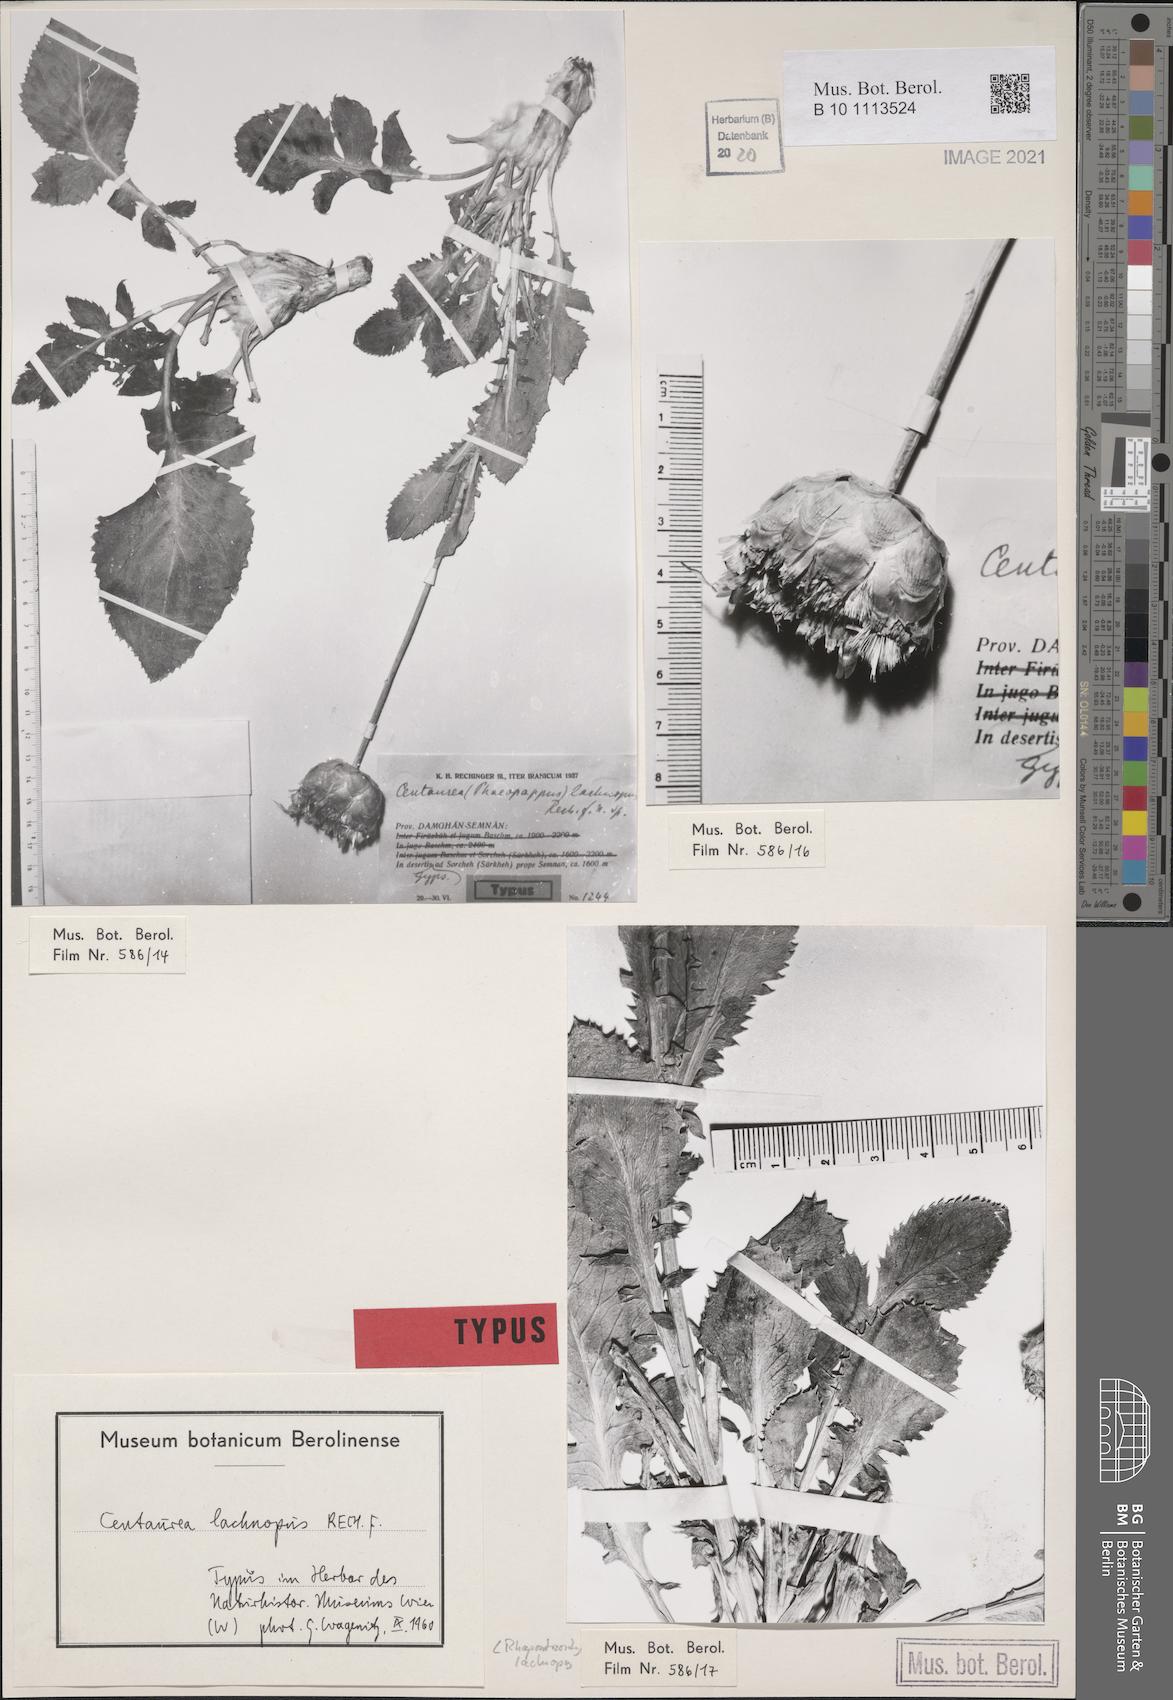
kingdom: Plantae
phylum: Tracheophyta
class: Magnoliopsida
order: Asterales
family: Asteraceae
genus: Rhaponticoides
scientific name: Rhaponticoides lachnopus
